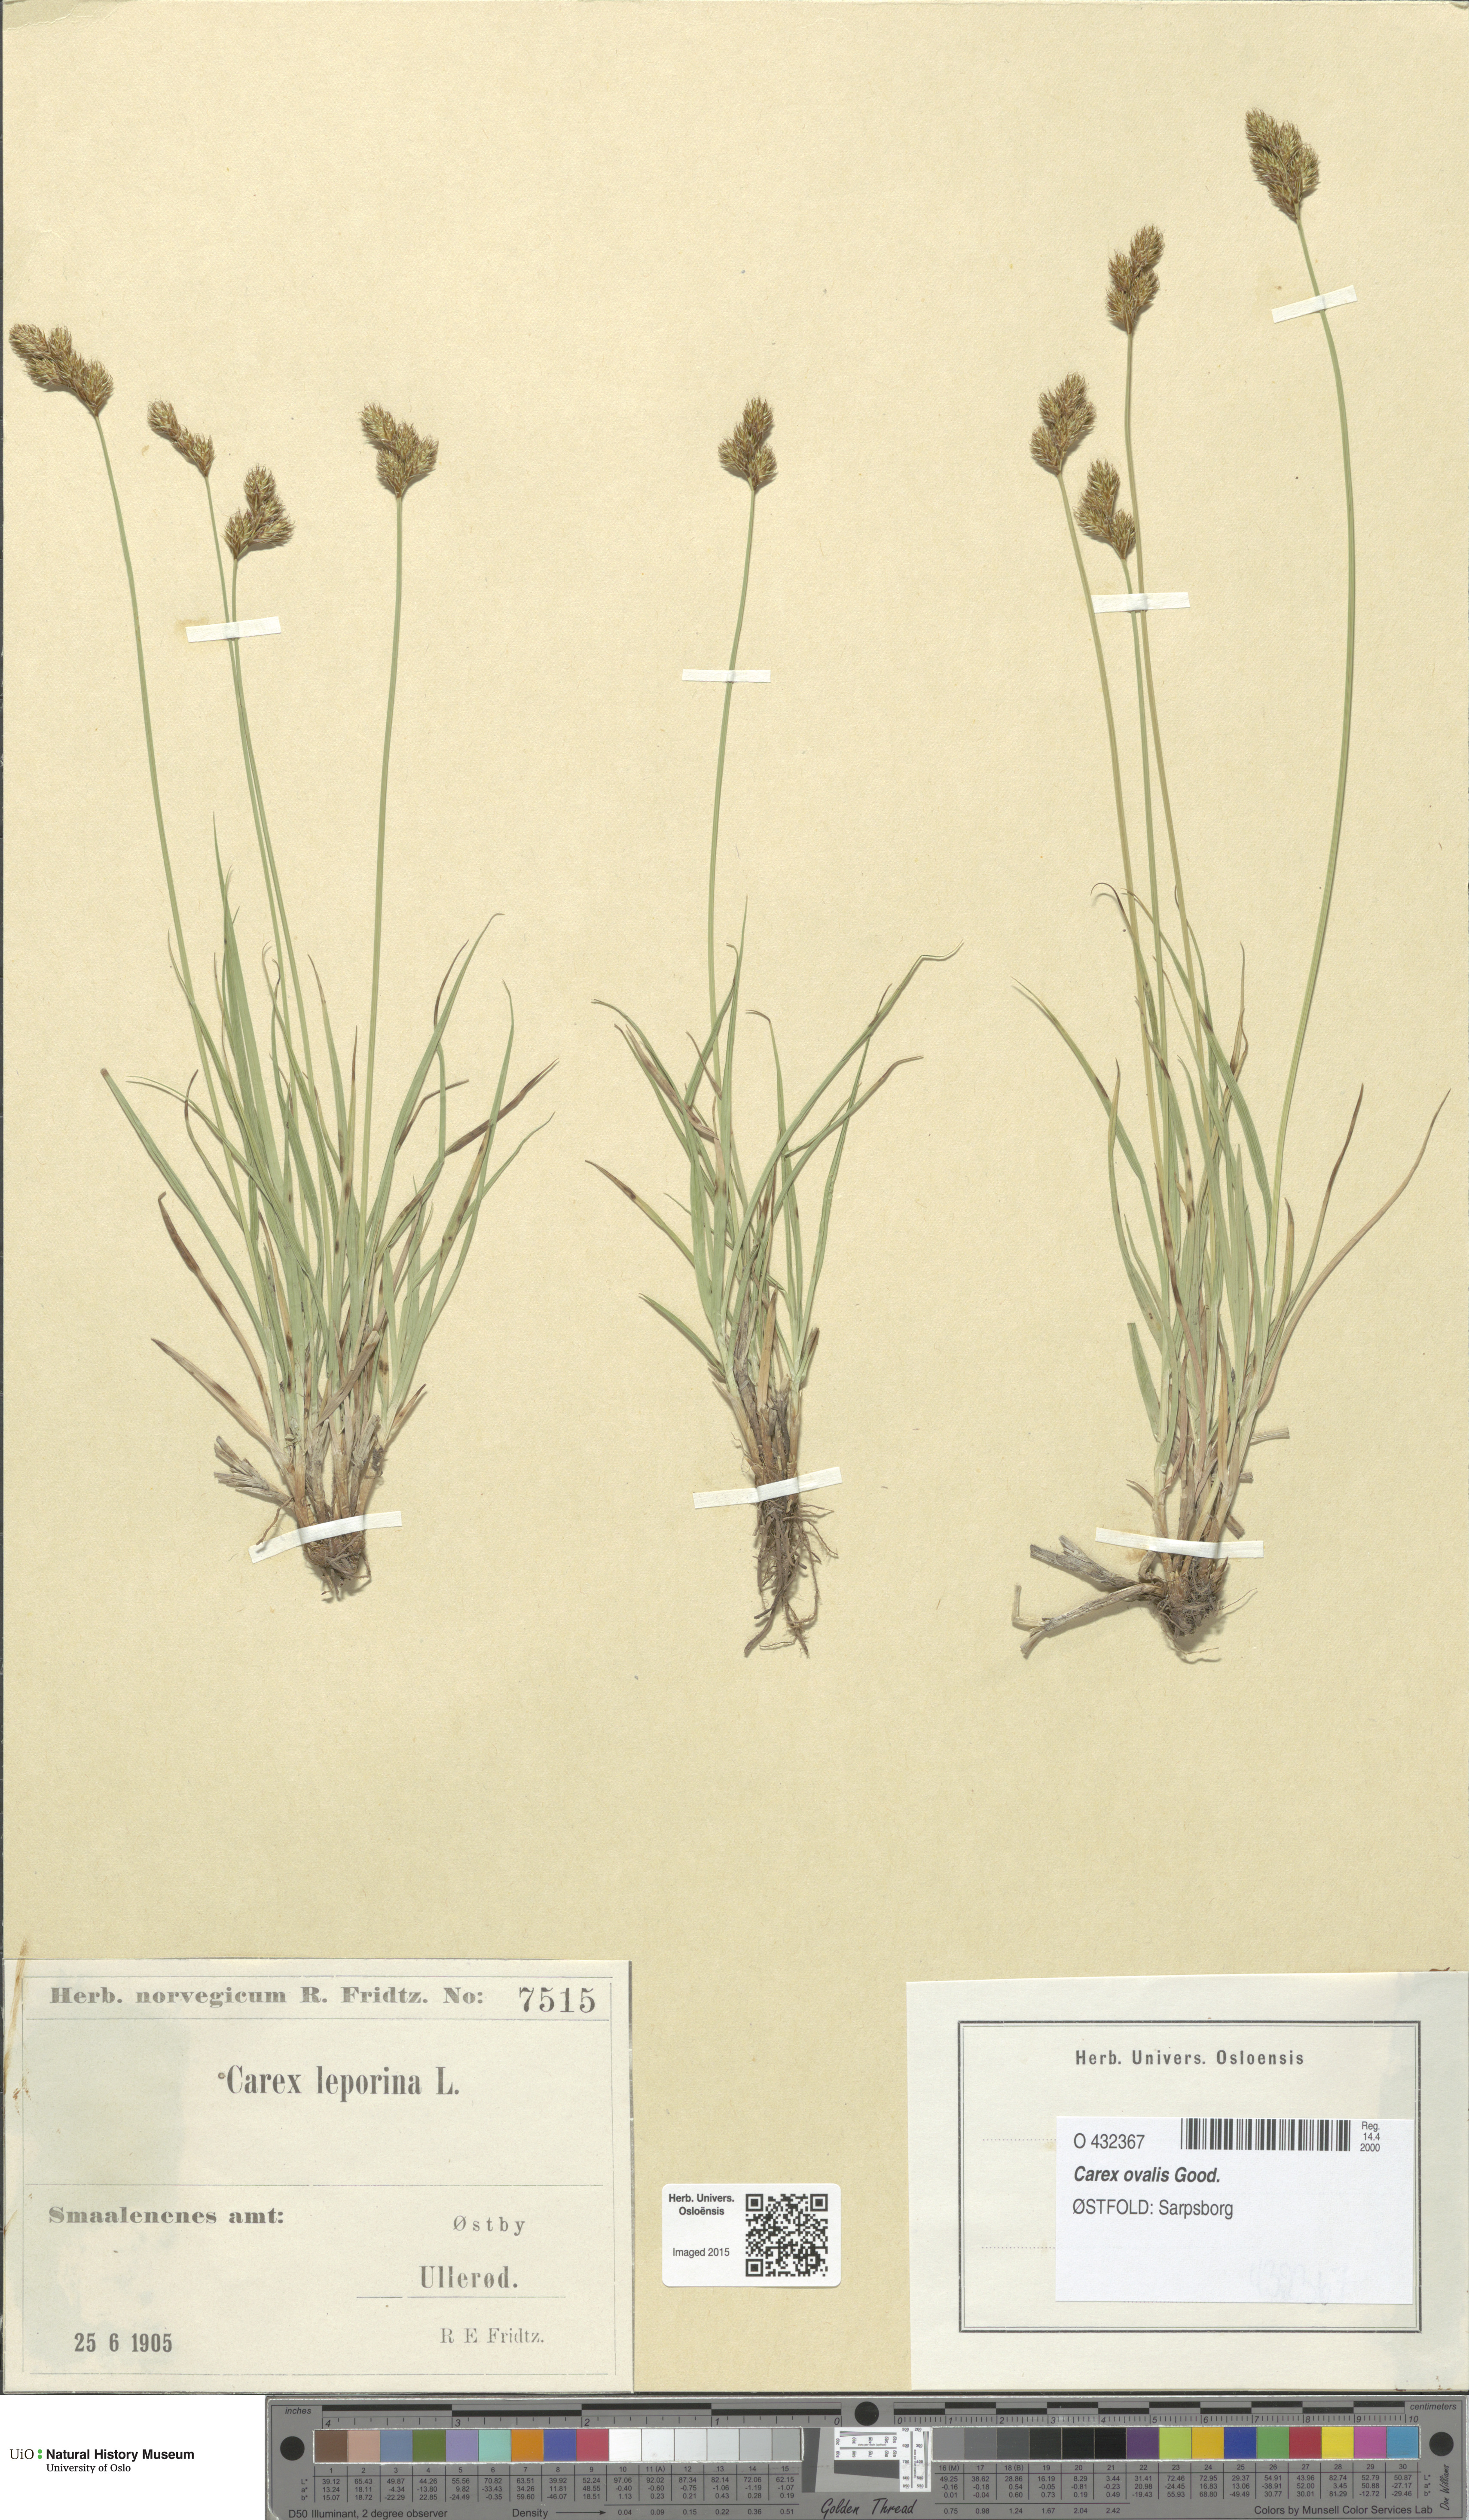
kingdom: Plantae
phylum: Tracheophyta
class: Liliopsida
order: Poales
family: Cyperaceae
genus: Carex
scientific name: Carex leporina
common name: Oval sedge
